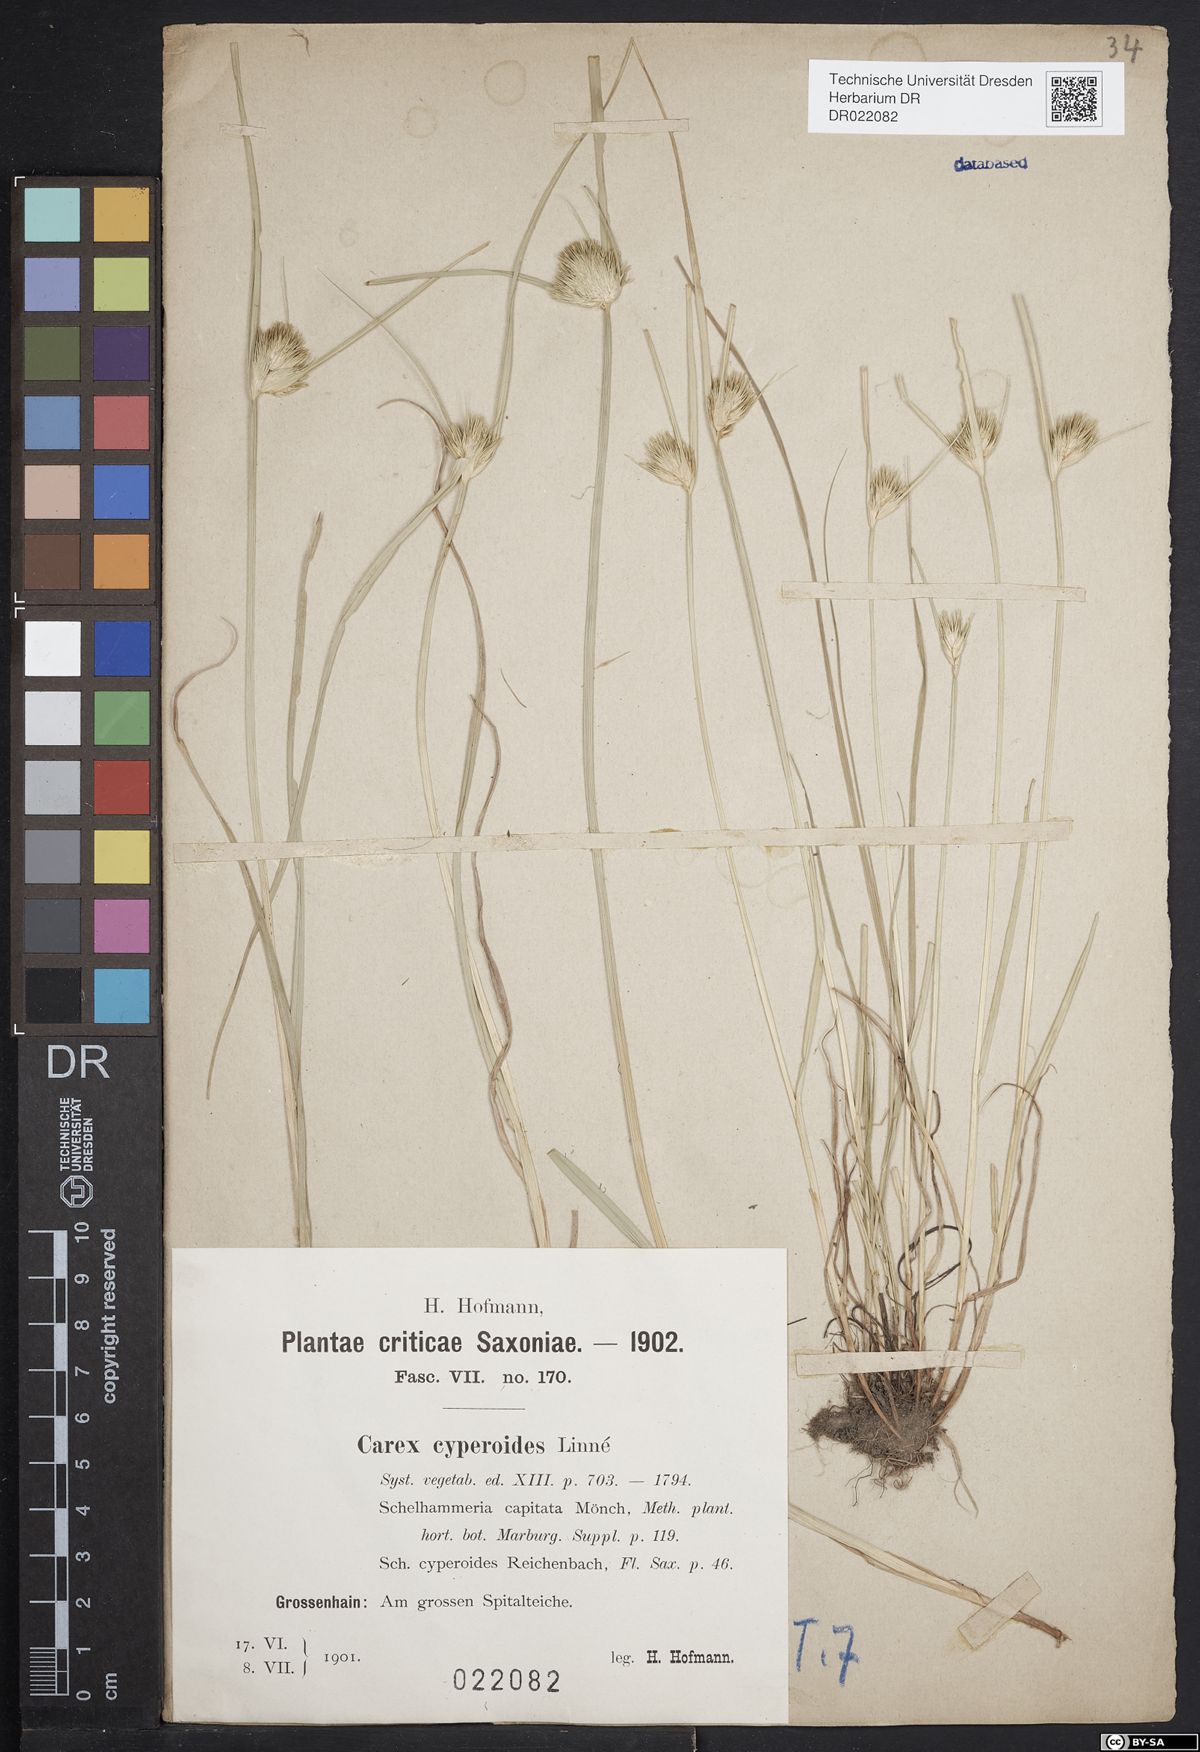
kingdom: Plantae
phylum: Tracheophyta
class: Liliopsida
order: Poales
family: Cyperaceae
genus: Carex
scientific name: Carex bohemica
